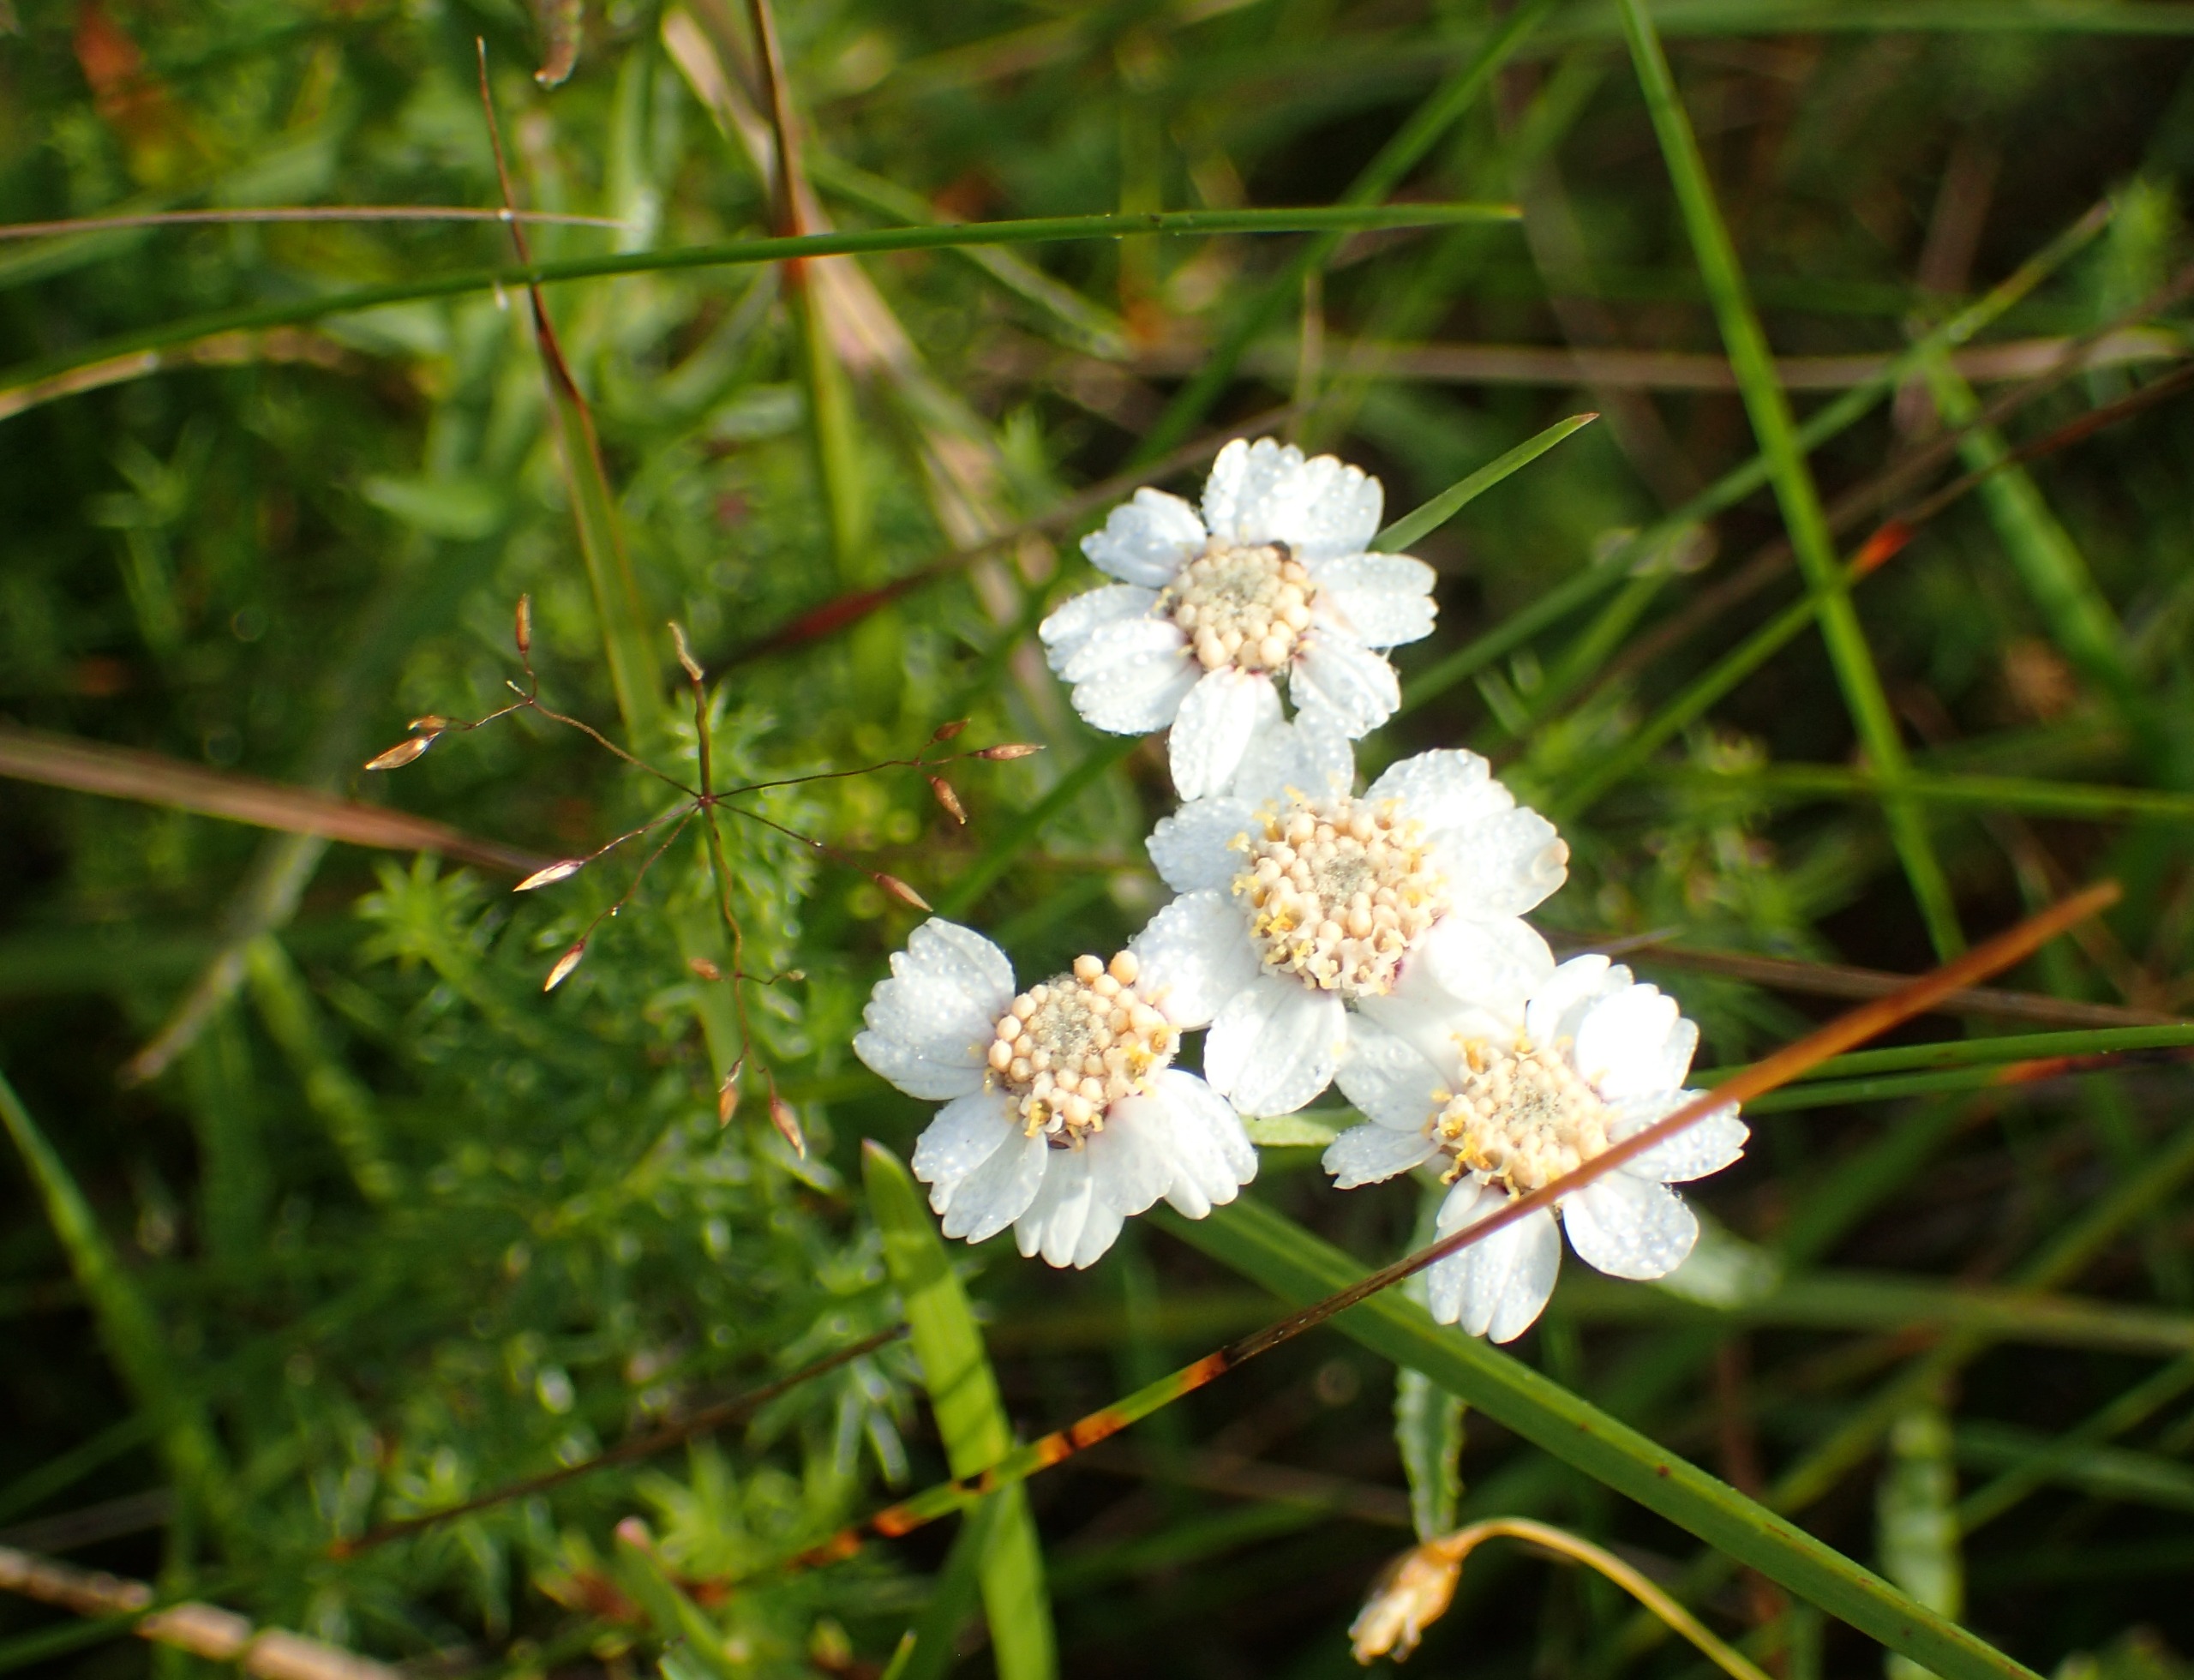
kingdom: Plantae
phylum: Tracheophyta
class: Magnoliopsida
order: Asterales
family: Asteraceae
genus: Achillea
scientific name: Achillea ptarmica
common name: Nyse-røllike
